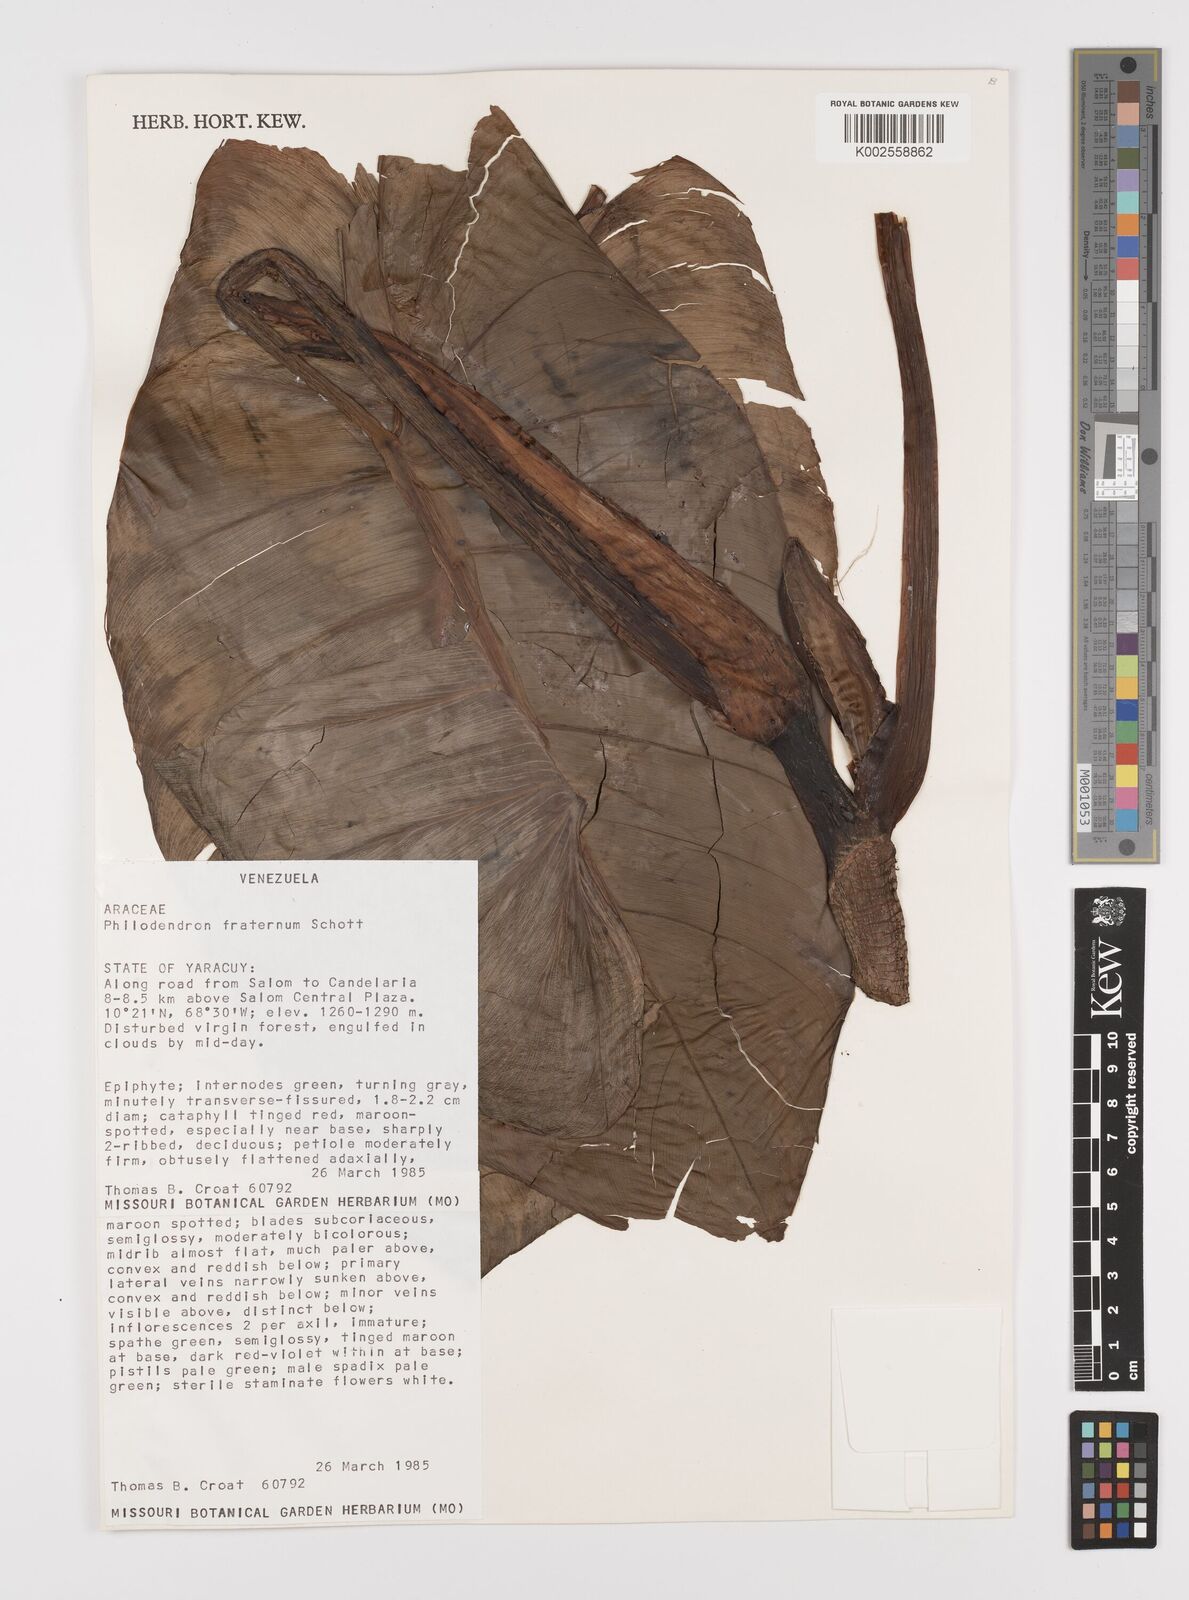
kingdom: Plantae
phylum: Tracheophyta
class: Liliopsida
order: Alismatales
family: Araceae
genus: Philodendron
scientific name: Philodendron fraternum
